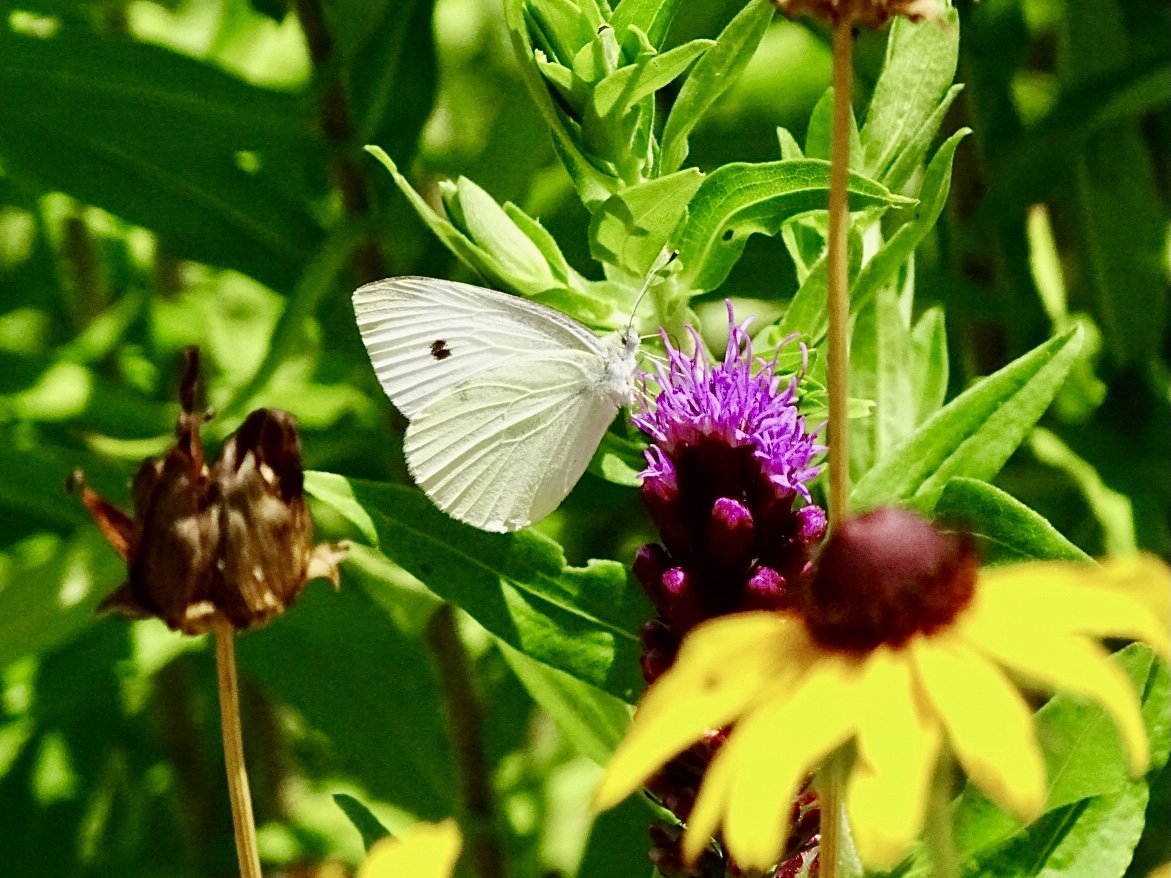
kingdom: Animalia
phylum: Arthropoda
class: Insecta
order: Lepidoptera
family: Pieridae
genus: Pieris
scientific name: Pieris rapae
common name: Cabbage White
